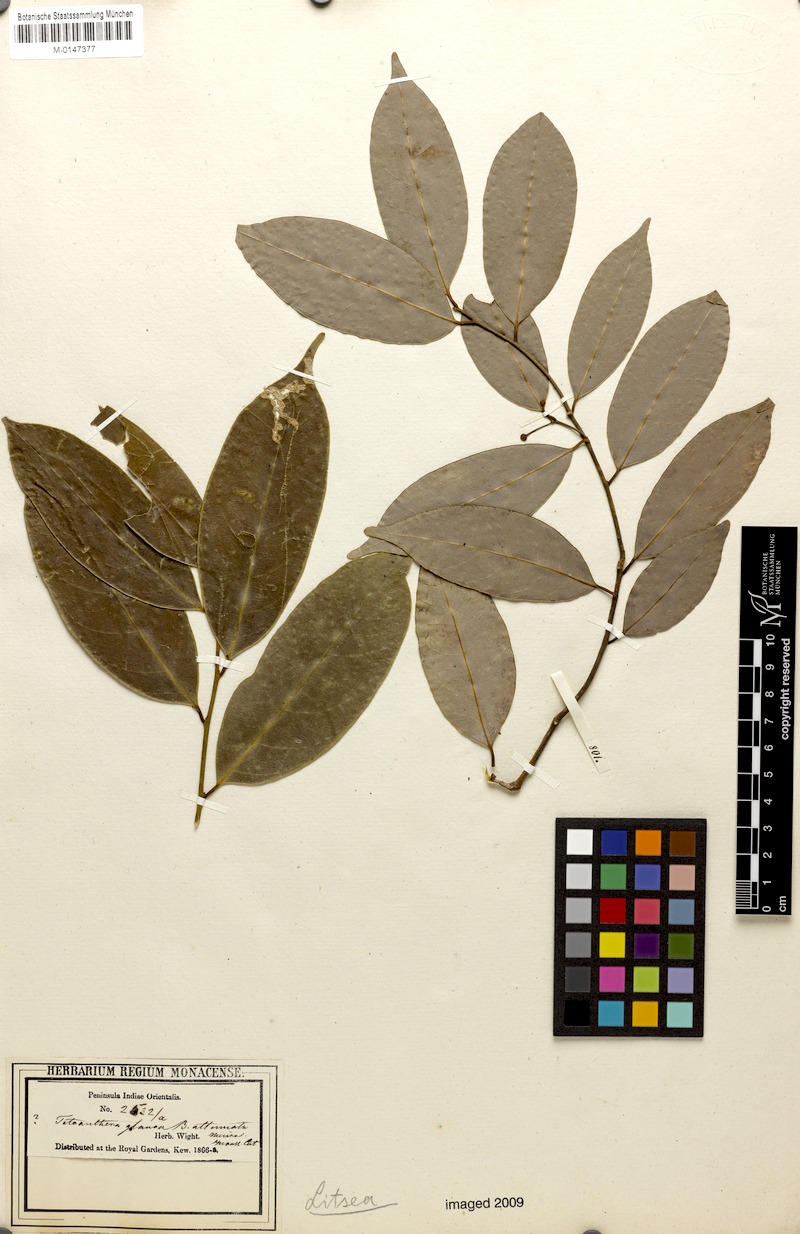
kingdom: Plantae
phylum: Tracheophyta
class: Magnoliopsida
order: Laurales
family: Lauraceae
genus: Neolitsea
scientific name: Neolitsea sericea
